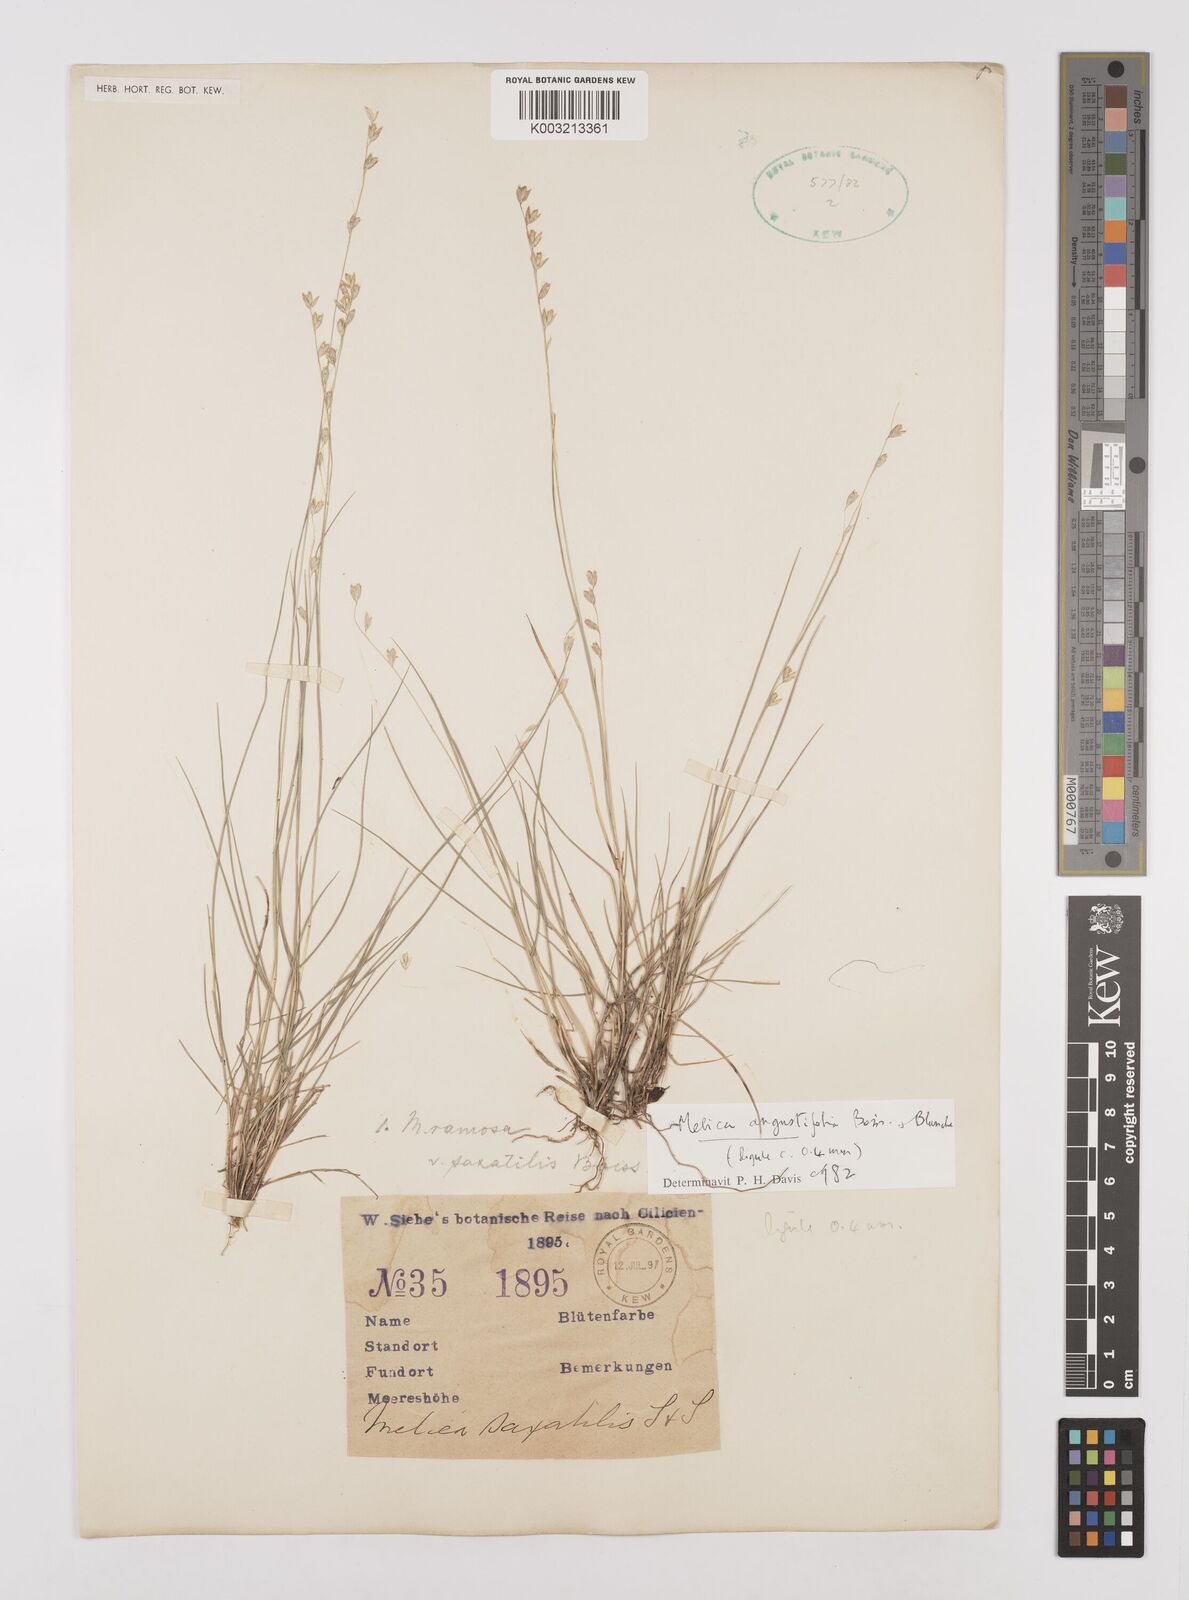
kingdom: Plantae
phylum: Tracheophyta
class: Liliopsida
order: Poales
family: Poaceae
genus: Melica
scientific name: Melica
